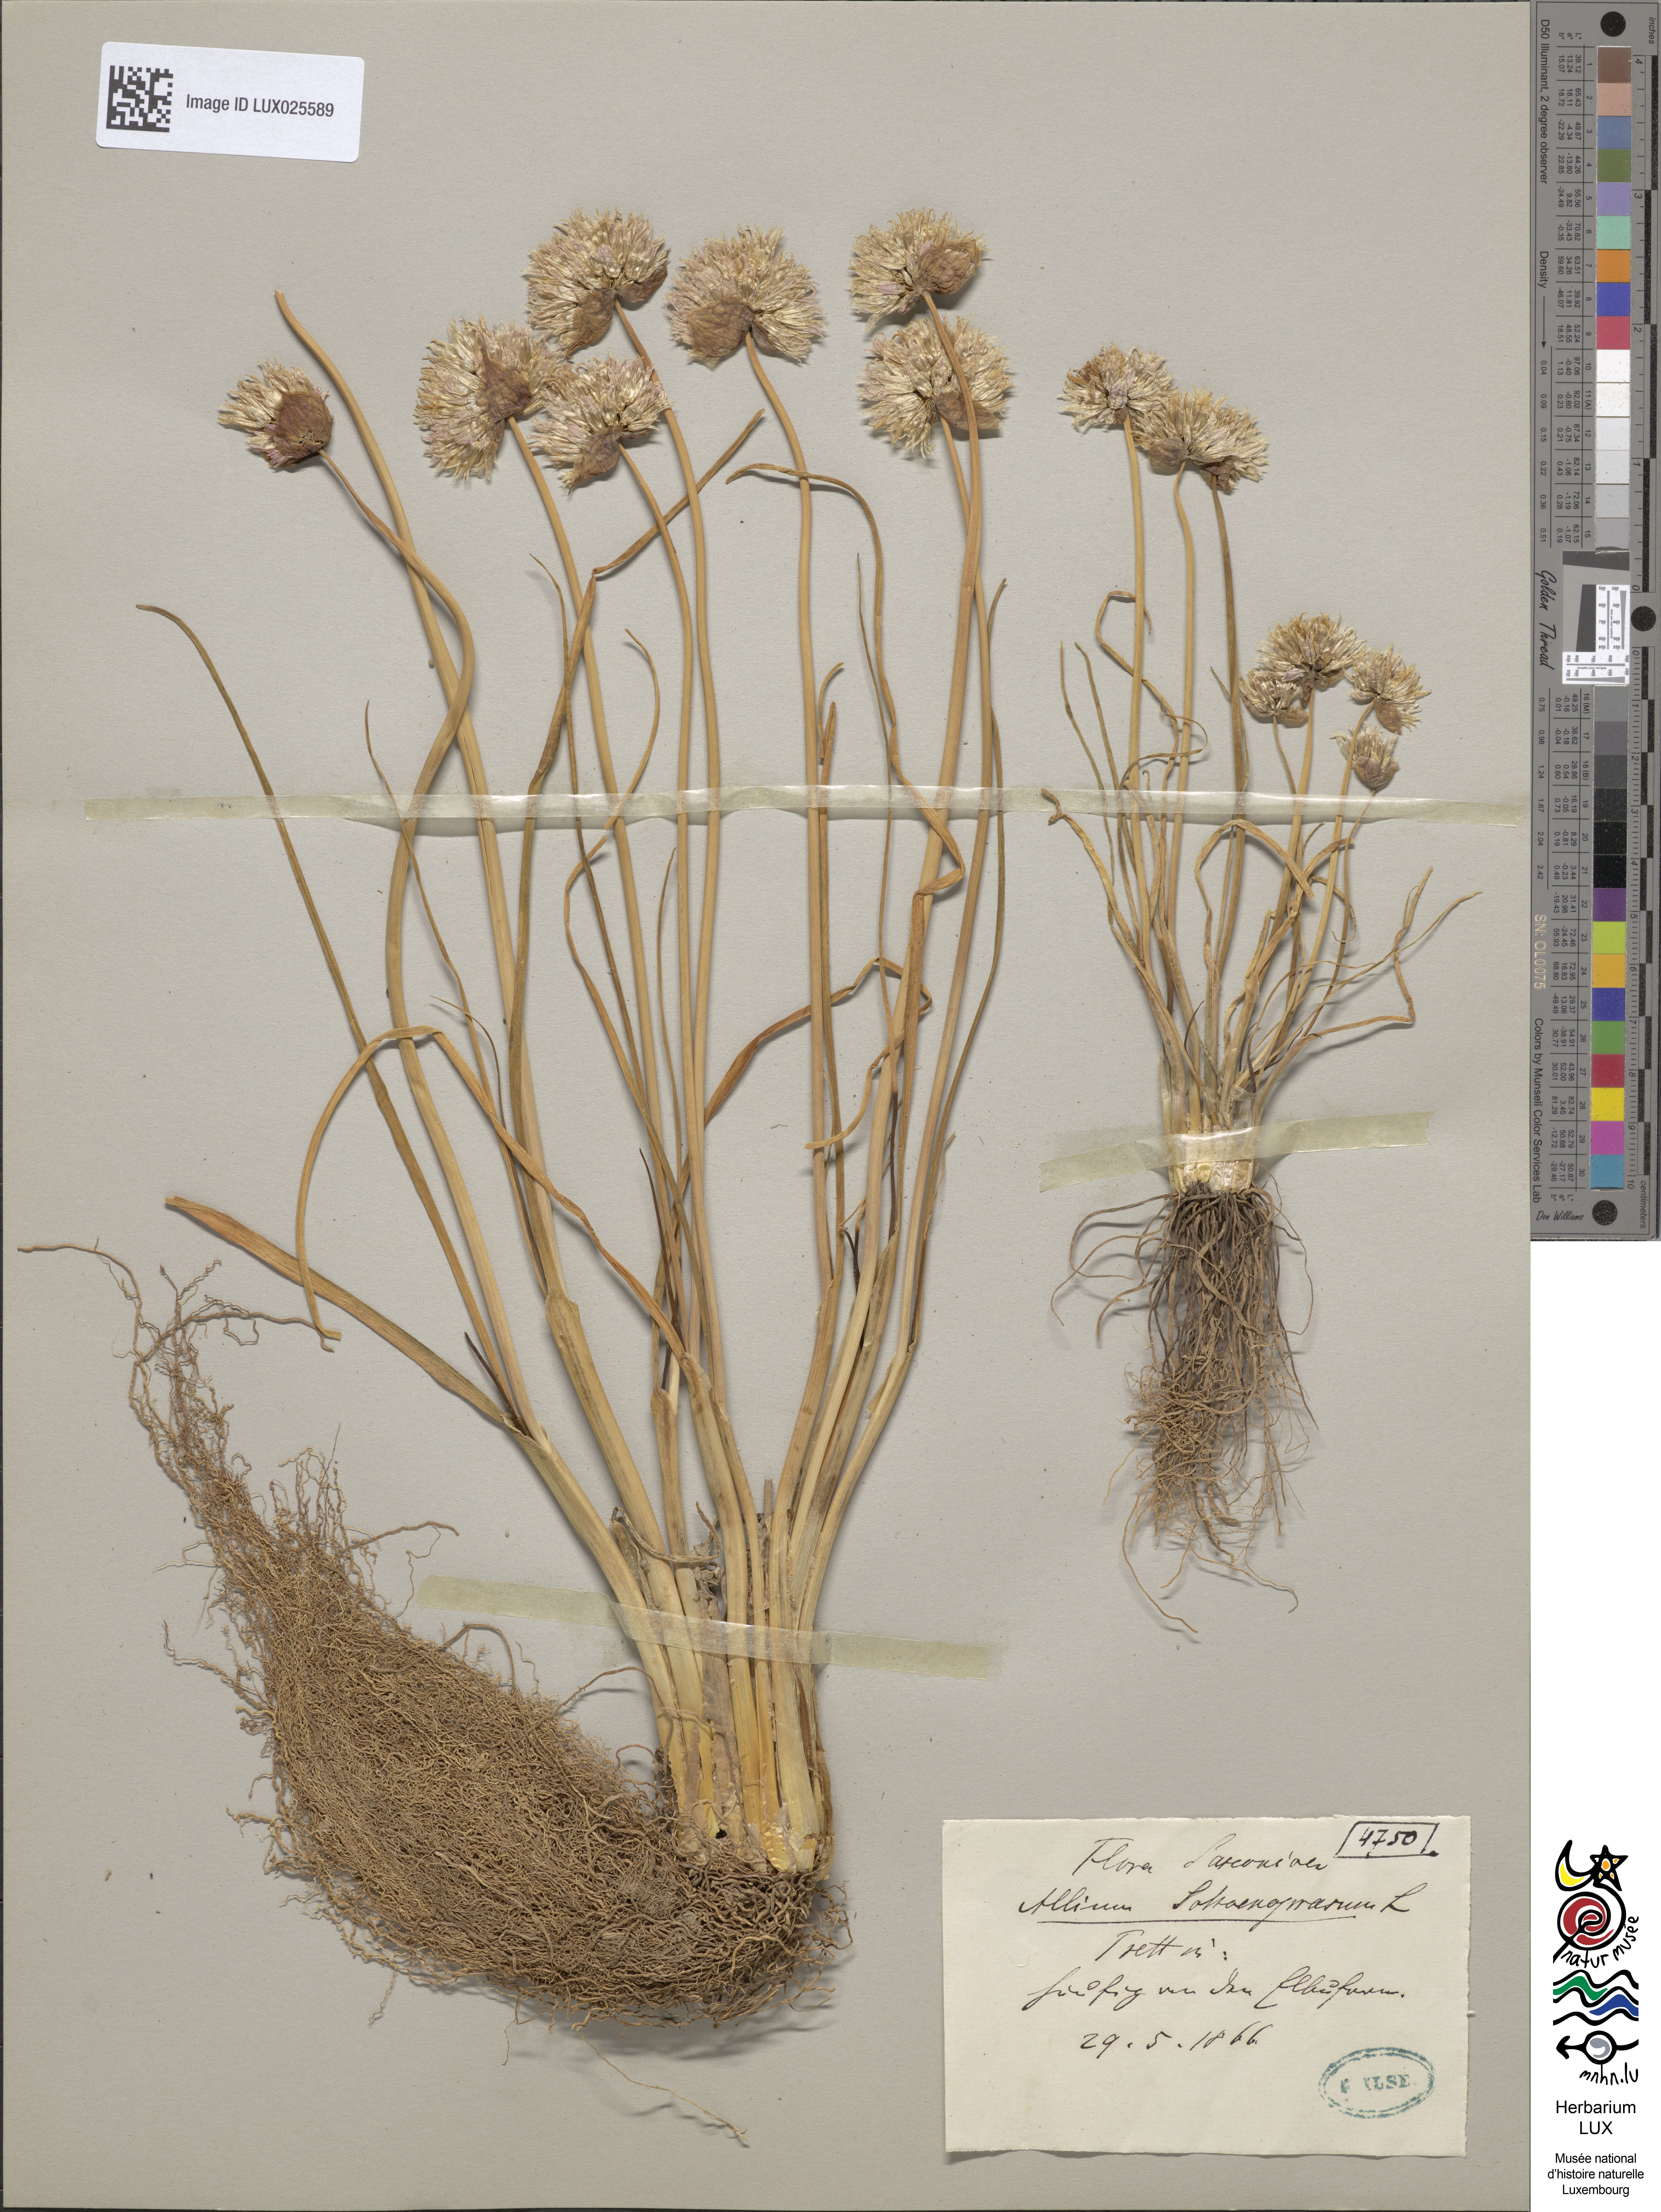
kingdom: Plantae
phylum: Tracheophyta
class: Liliopsida
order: Asparagales
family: Amaryllidaceae
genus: Allium
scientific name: Allium schoenoprasum
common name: Chives
